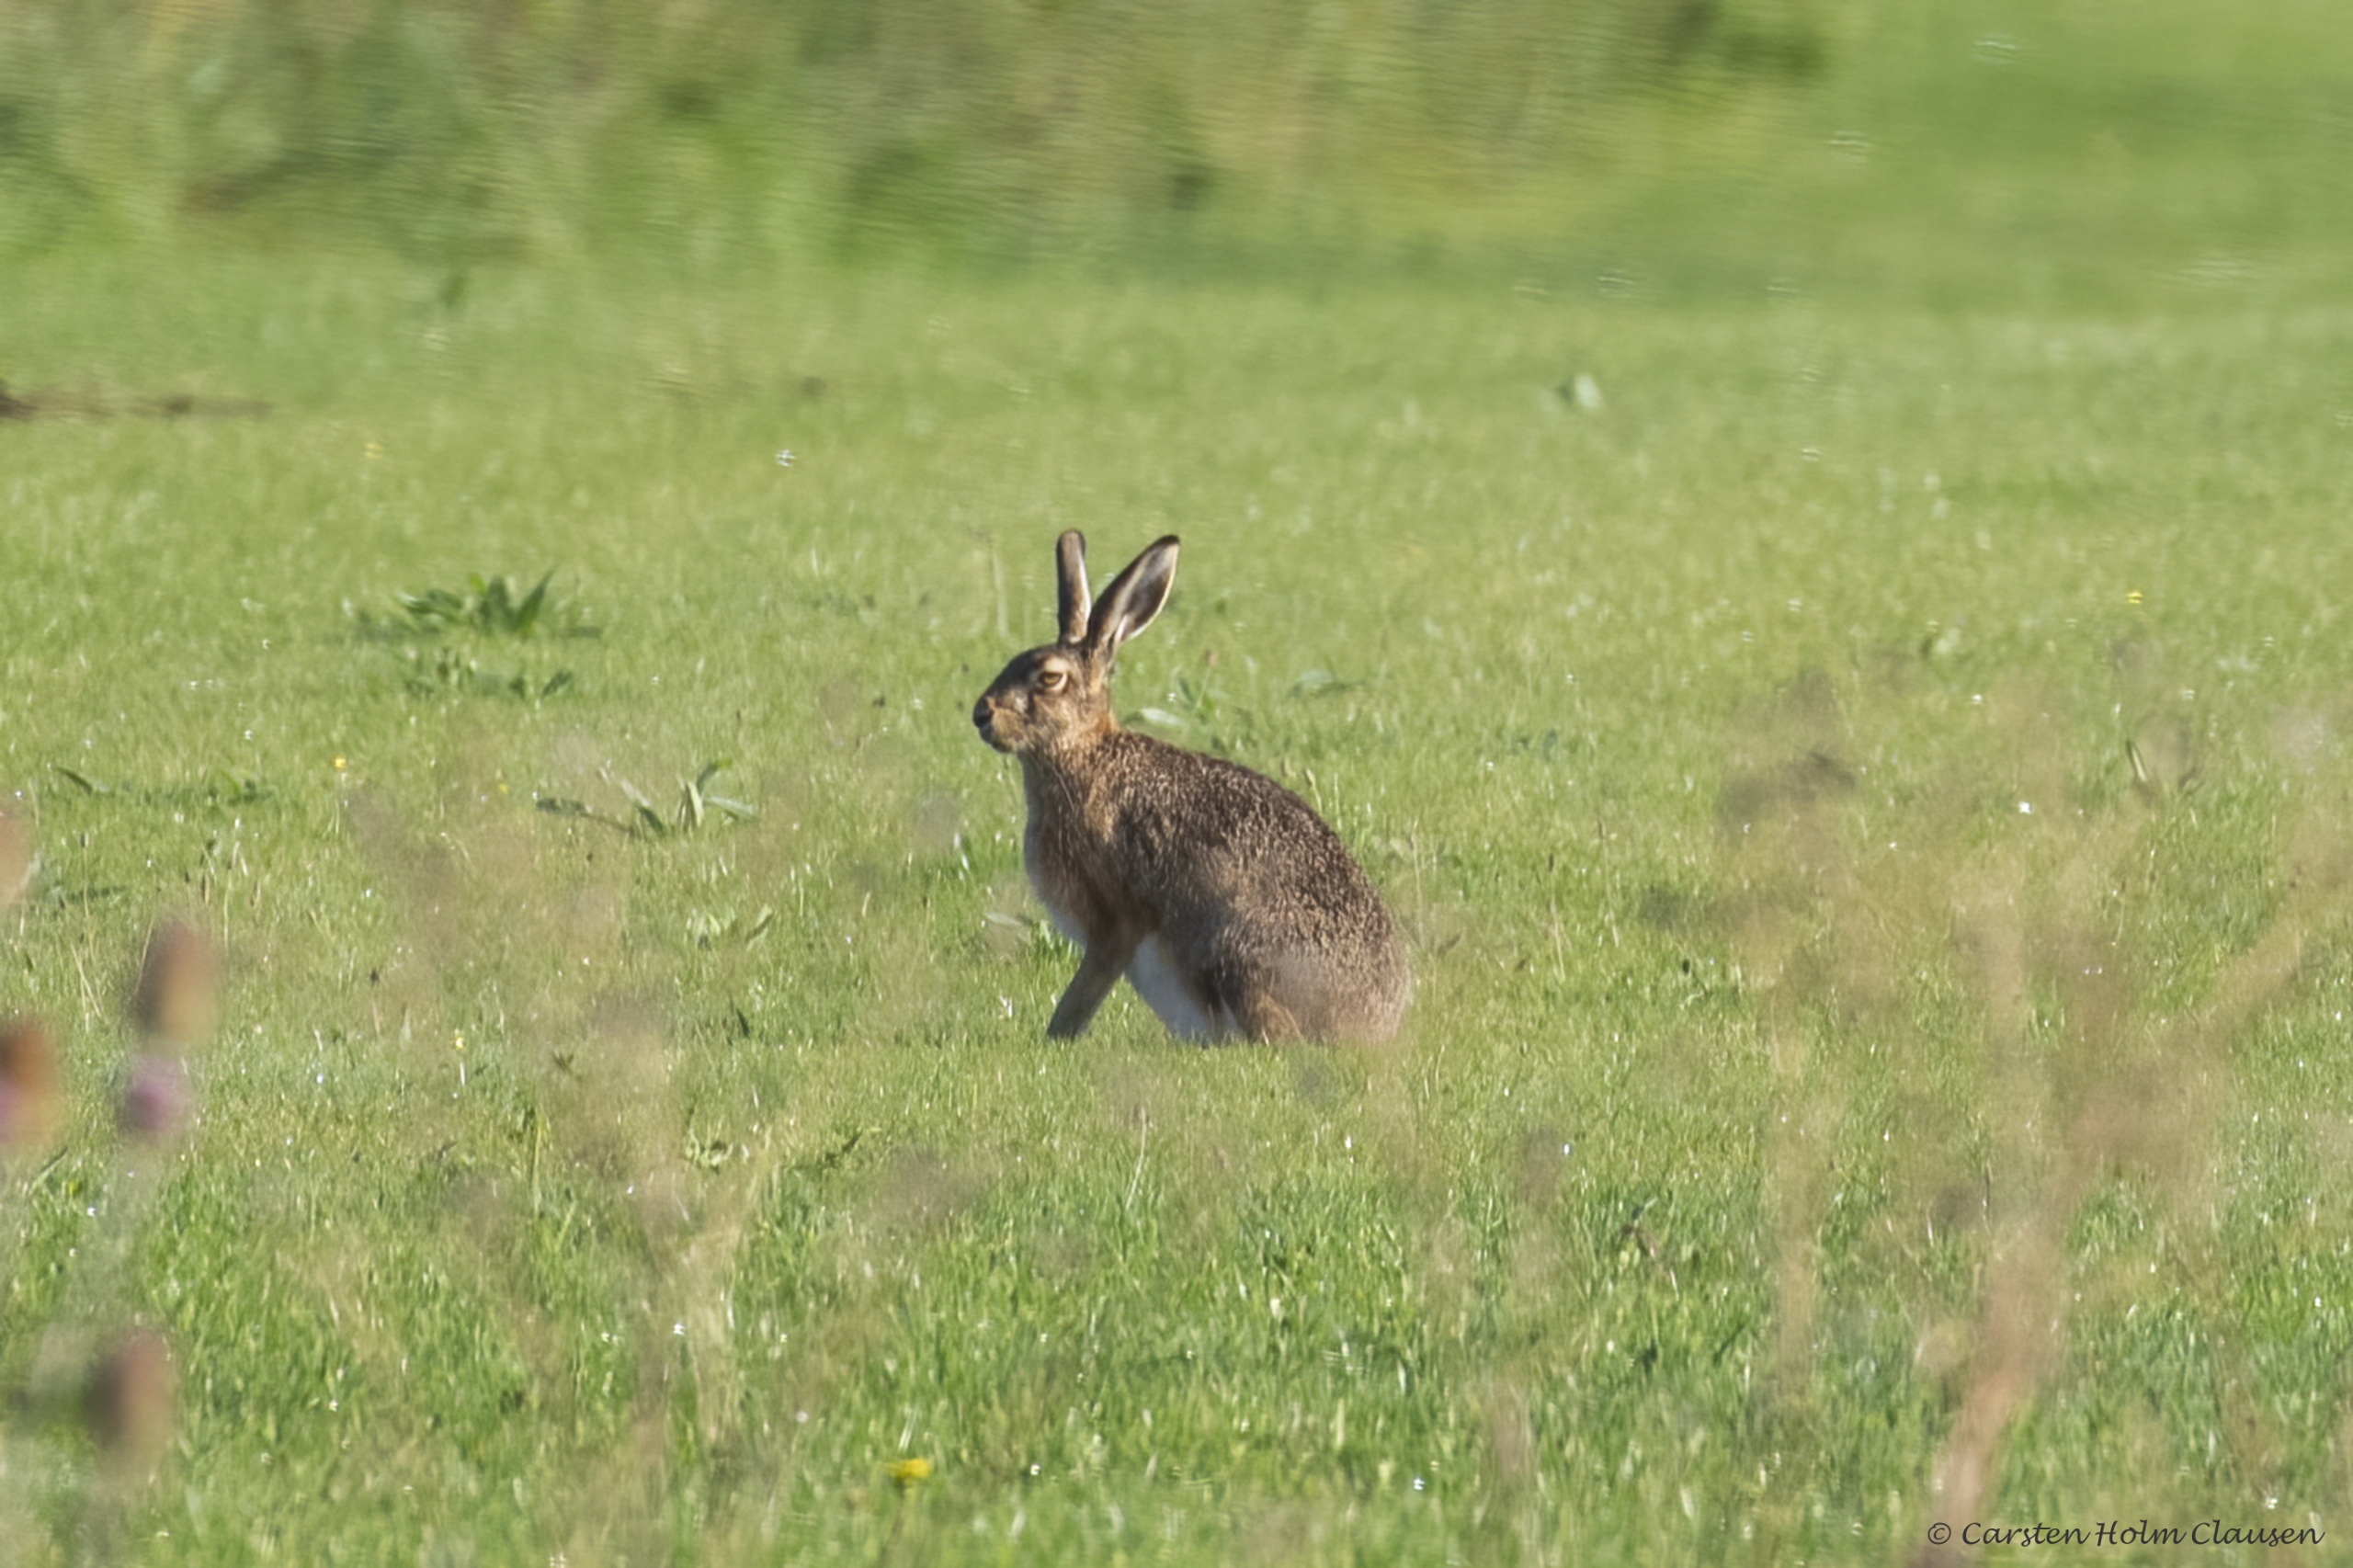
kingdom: Animalia
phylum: Chordata
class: Mammalia
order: Lagomorpha
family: Leporidae
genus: Lepus
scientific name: Lepus europaeus
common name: Hare
